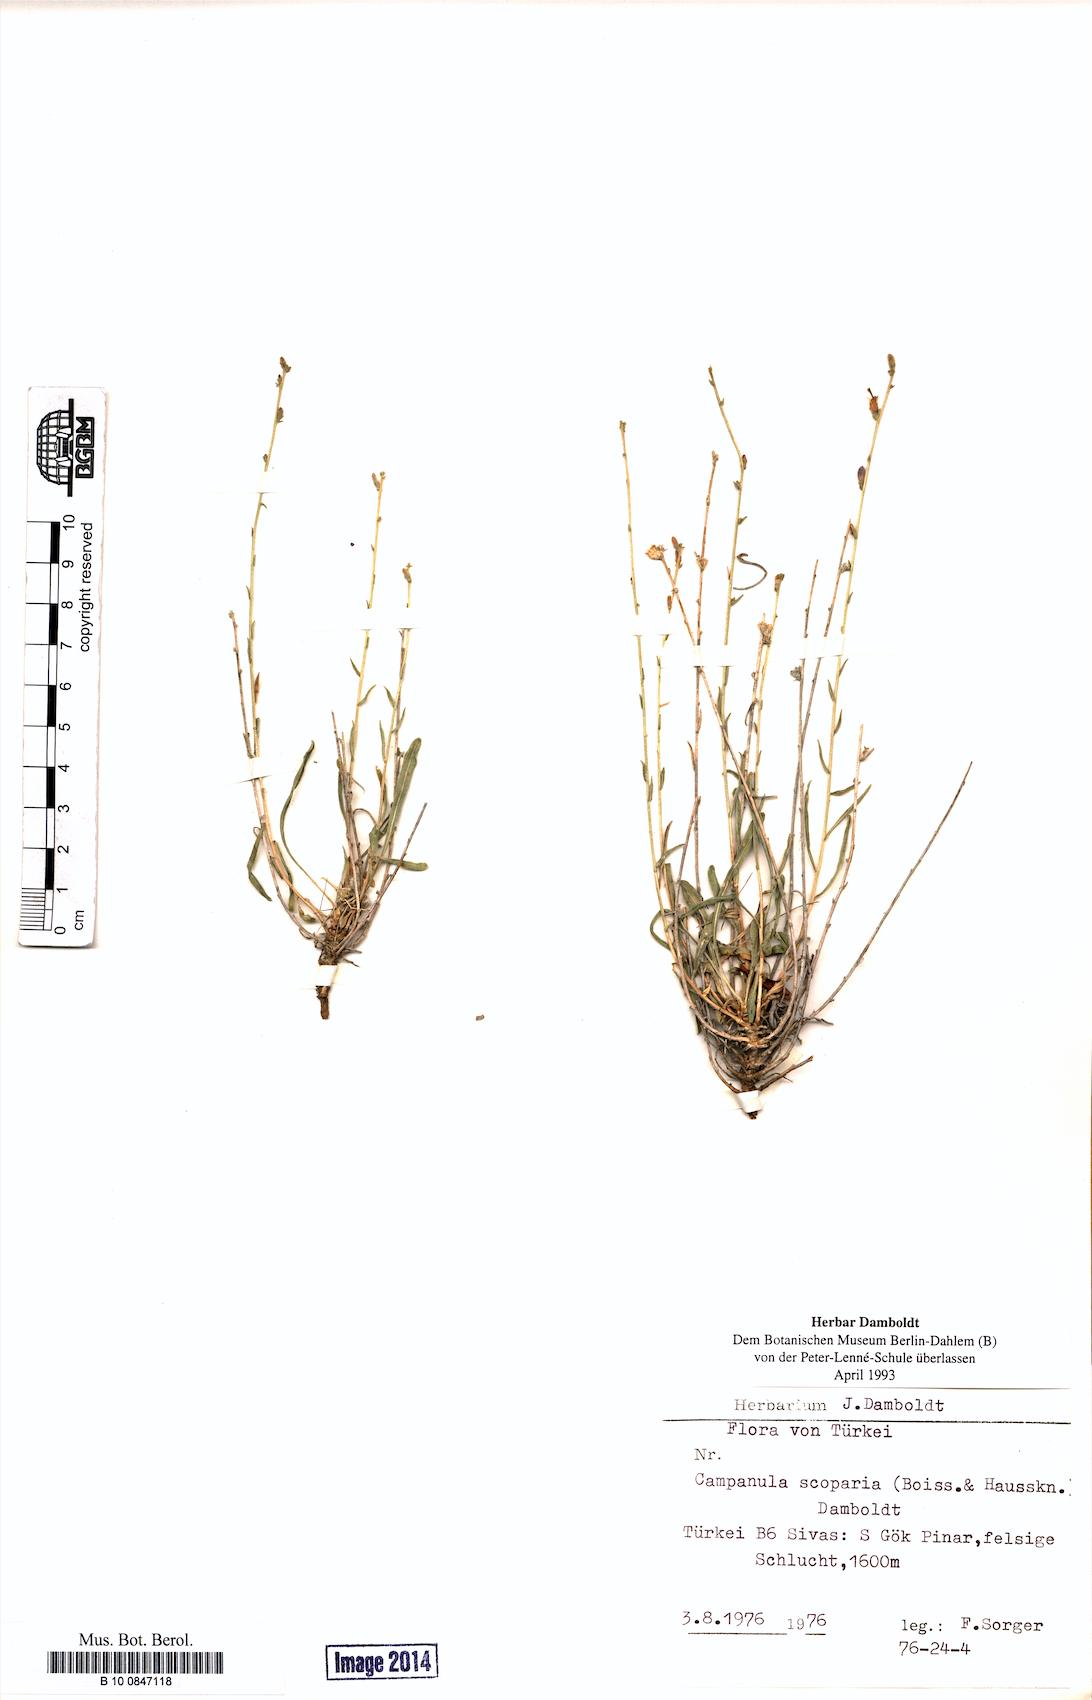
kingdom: Plantae
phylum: Tracheophyta
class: Magnoliopsida
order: Asterales
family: Campanulaceae
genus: Campanula
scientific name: Campanula scoparia
